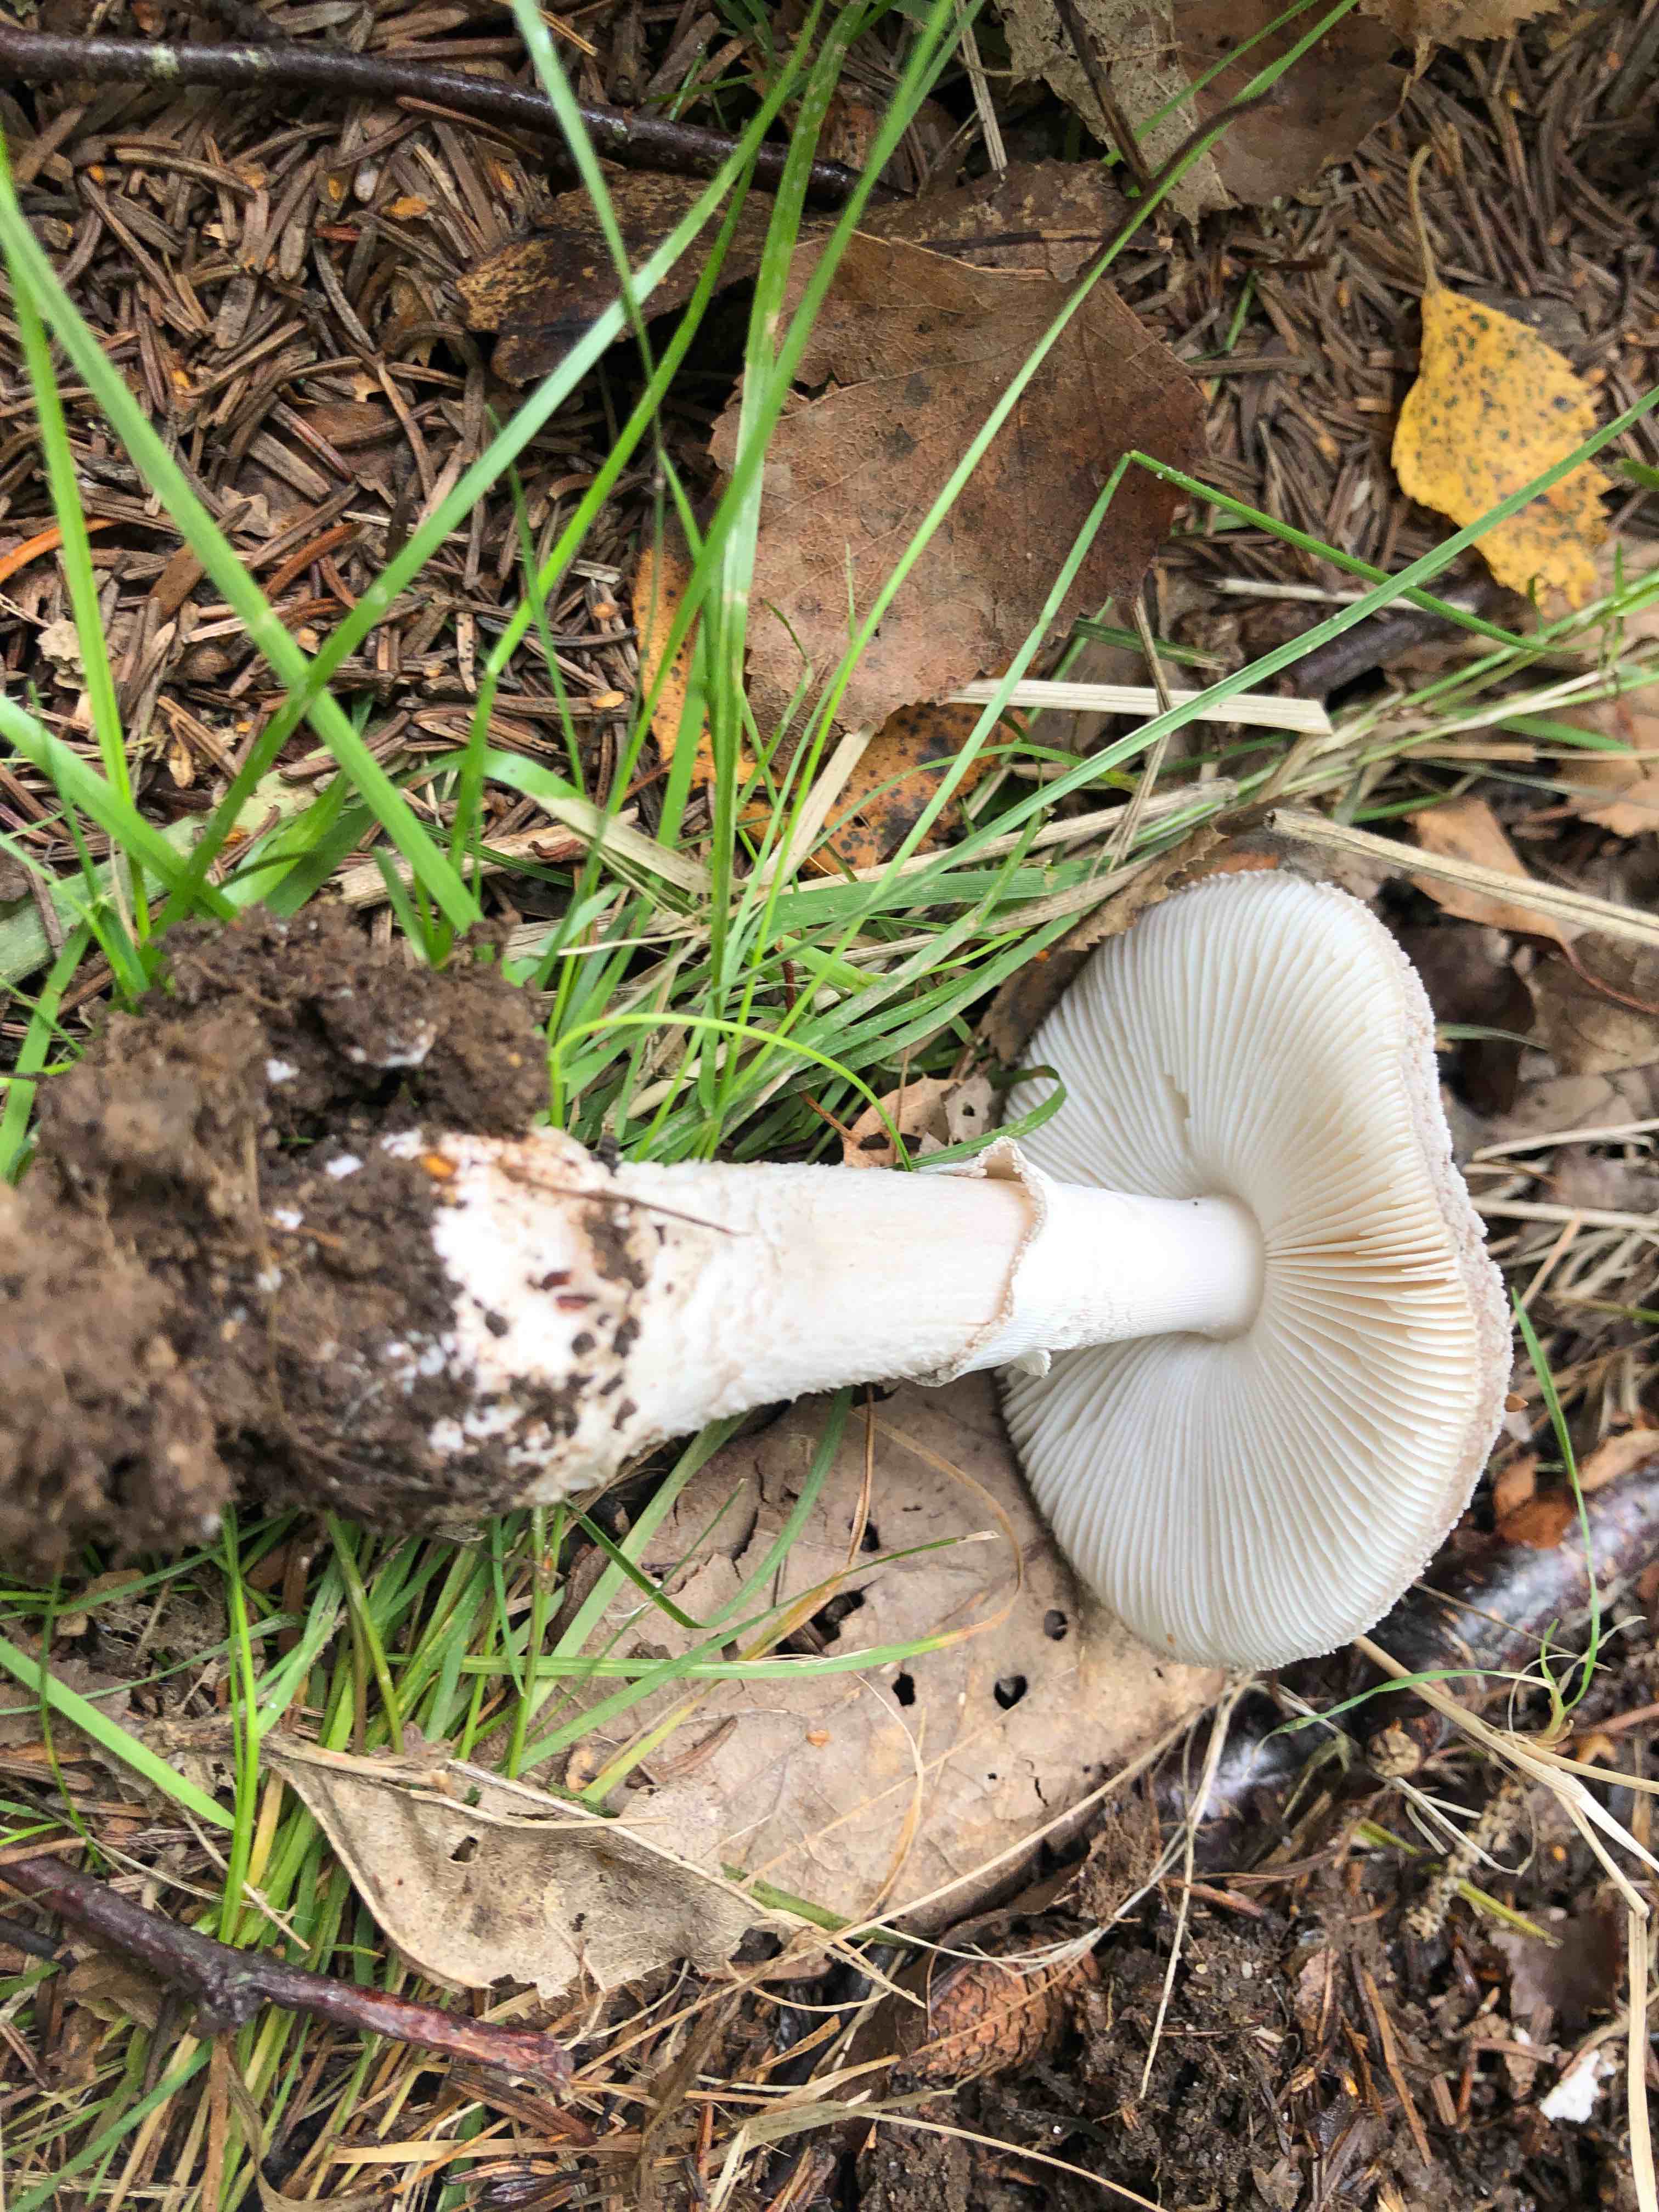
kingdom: Fungi
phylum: Basidiomycota
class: Agaricomycetes
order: Agaricales
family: Amanitaceae
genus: Amanita
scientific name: Amanita
